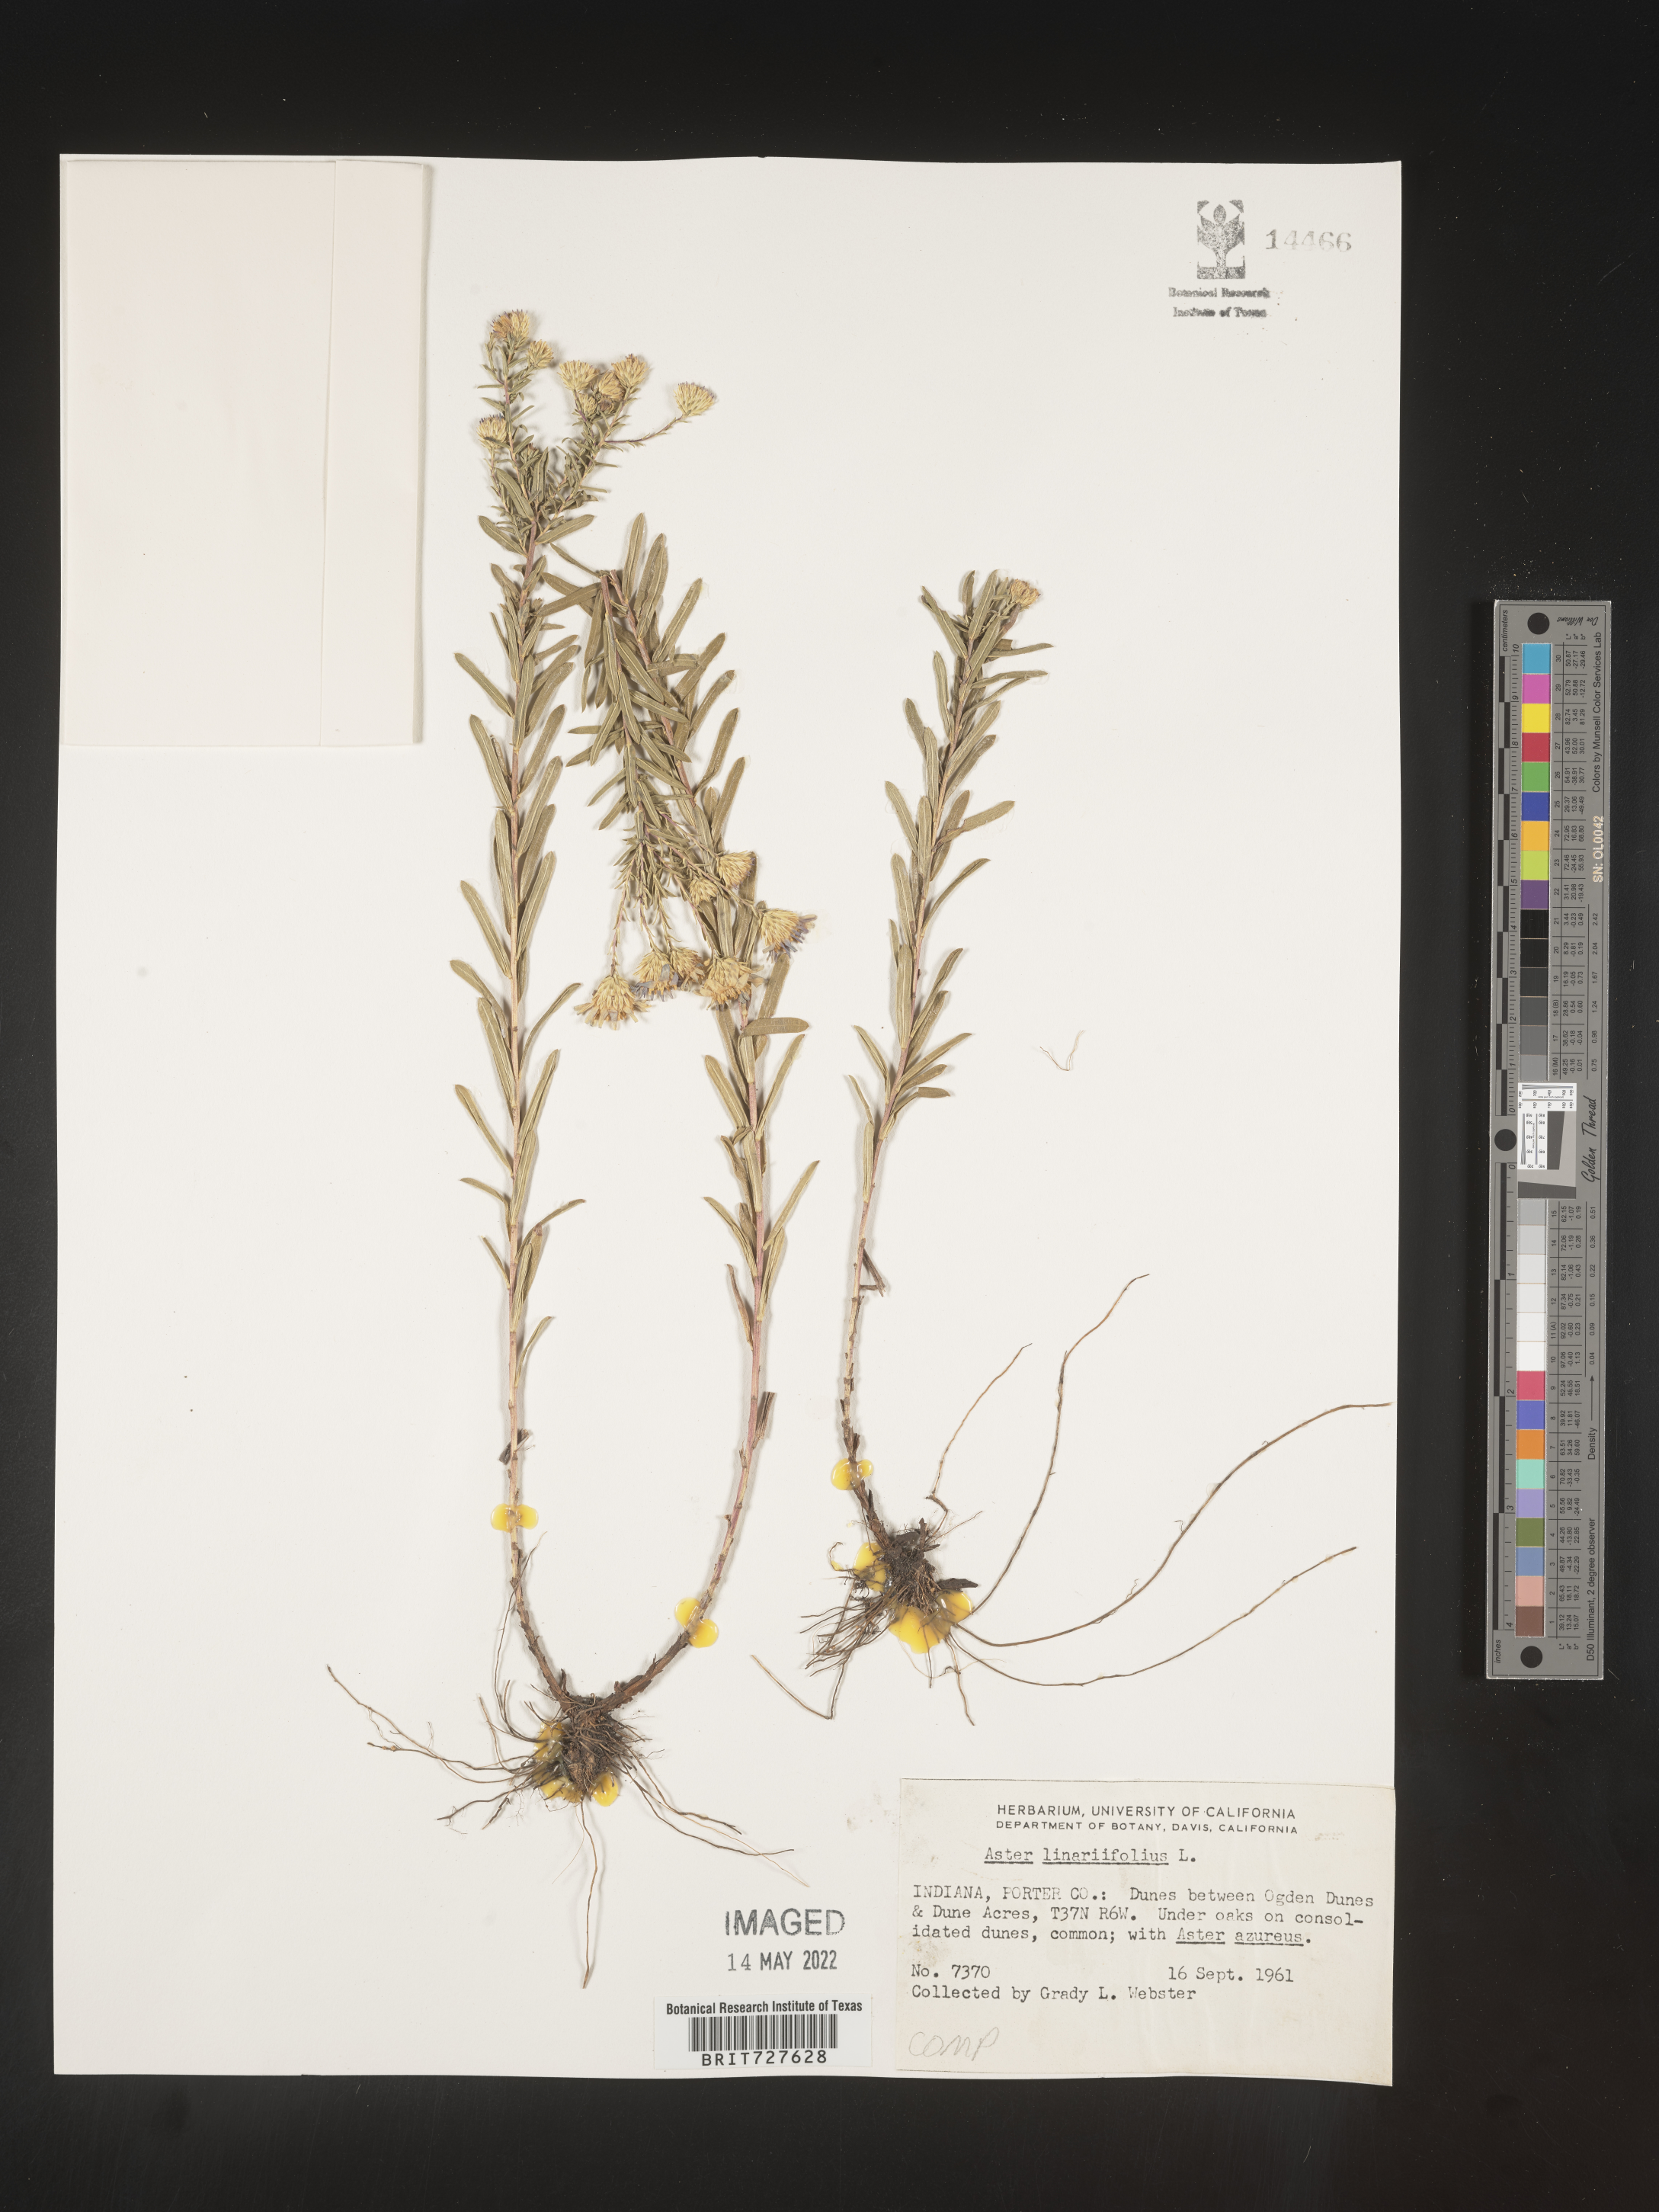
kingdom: Plantae
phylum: Tracheophyta
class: Magnoliopsida
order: Asterales
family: Asteraceae
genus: Ionactis
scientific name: Ionactis linariifolia
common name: Flax-leaf aster
